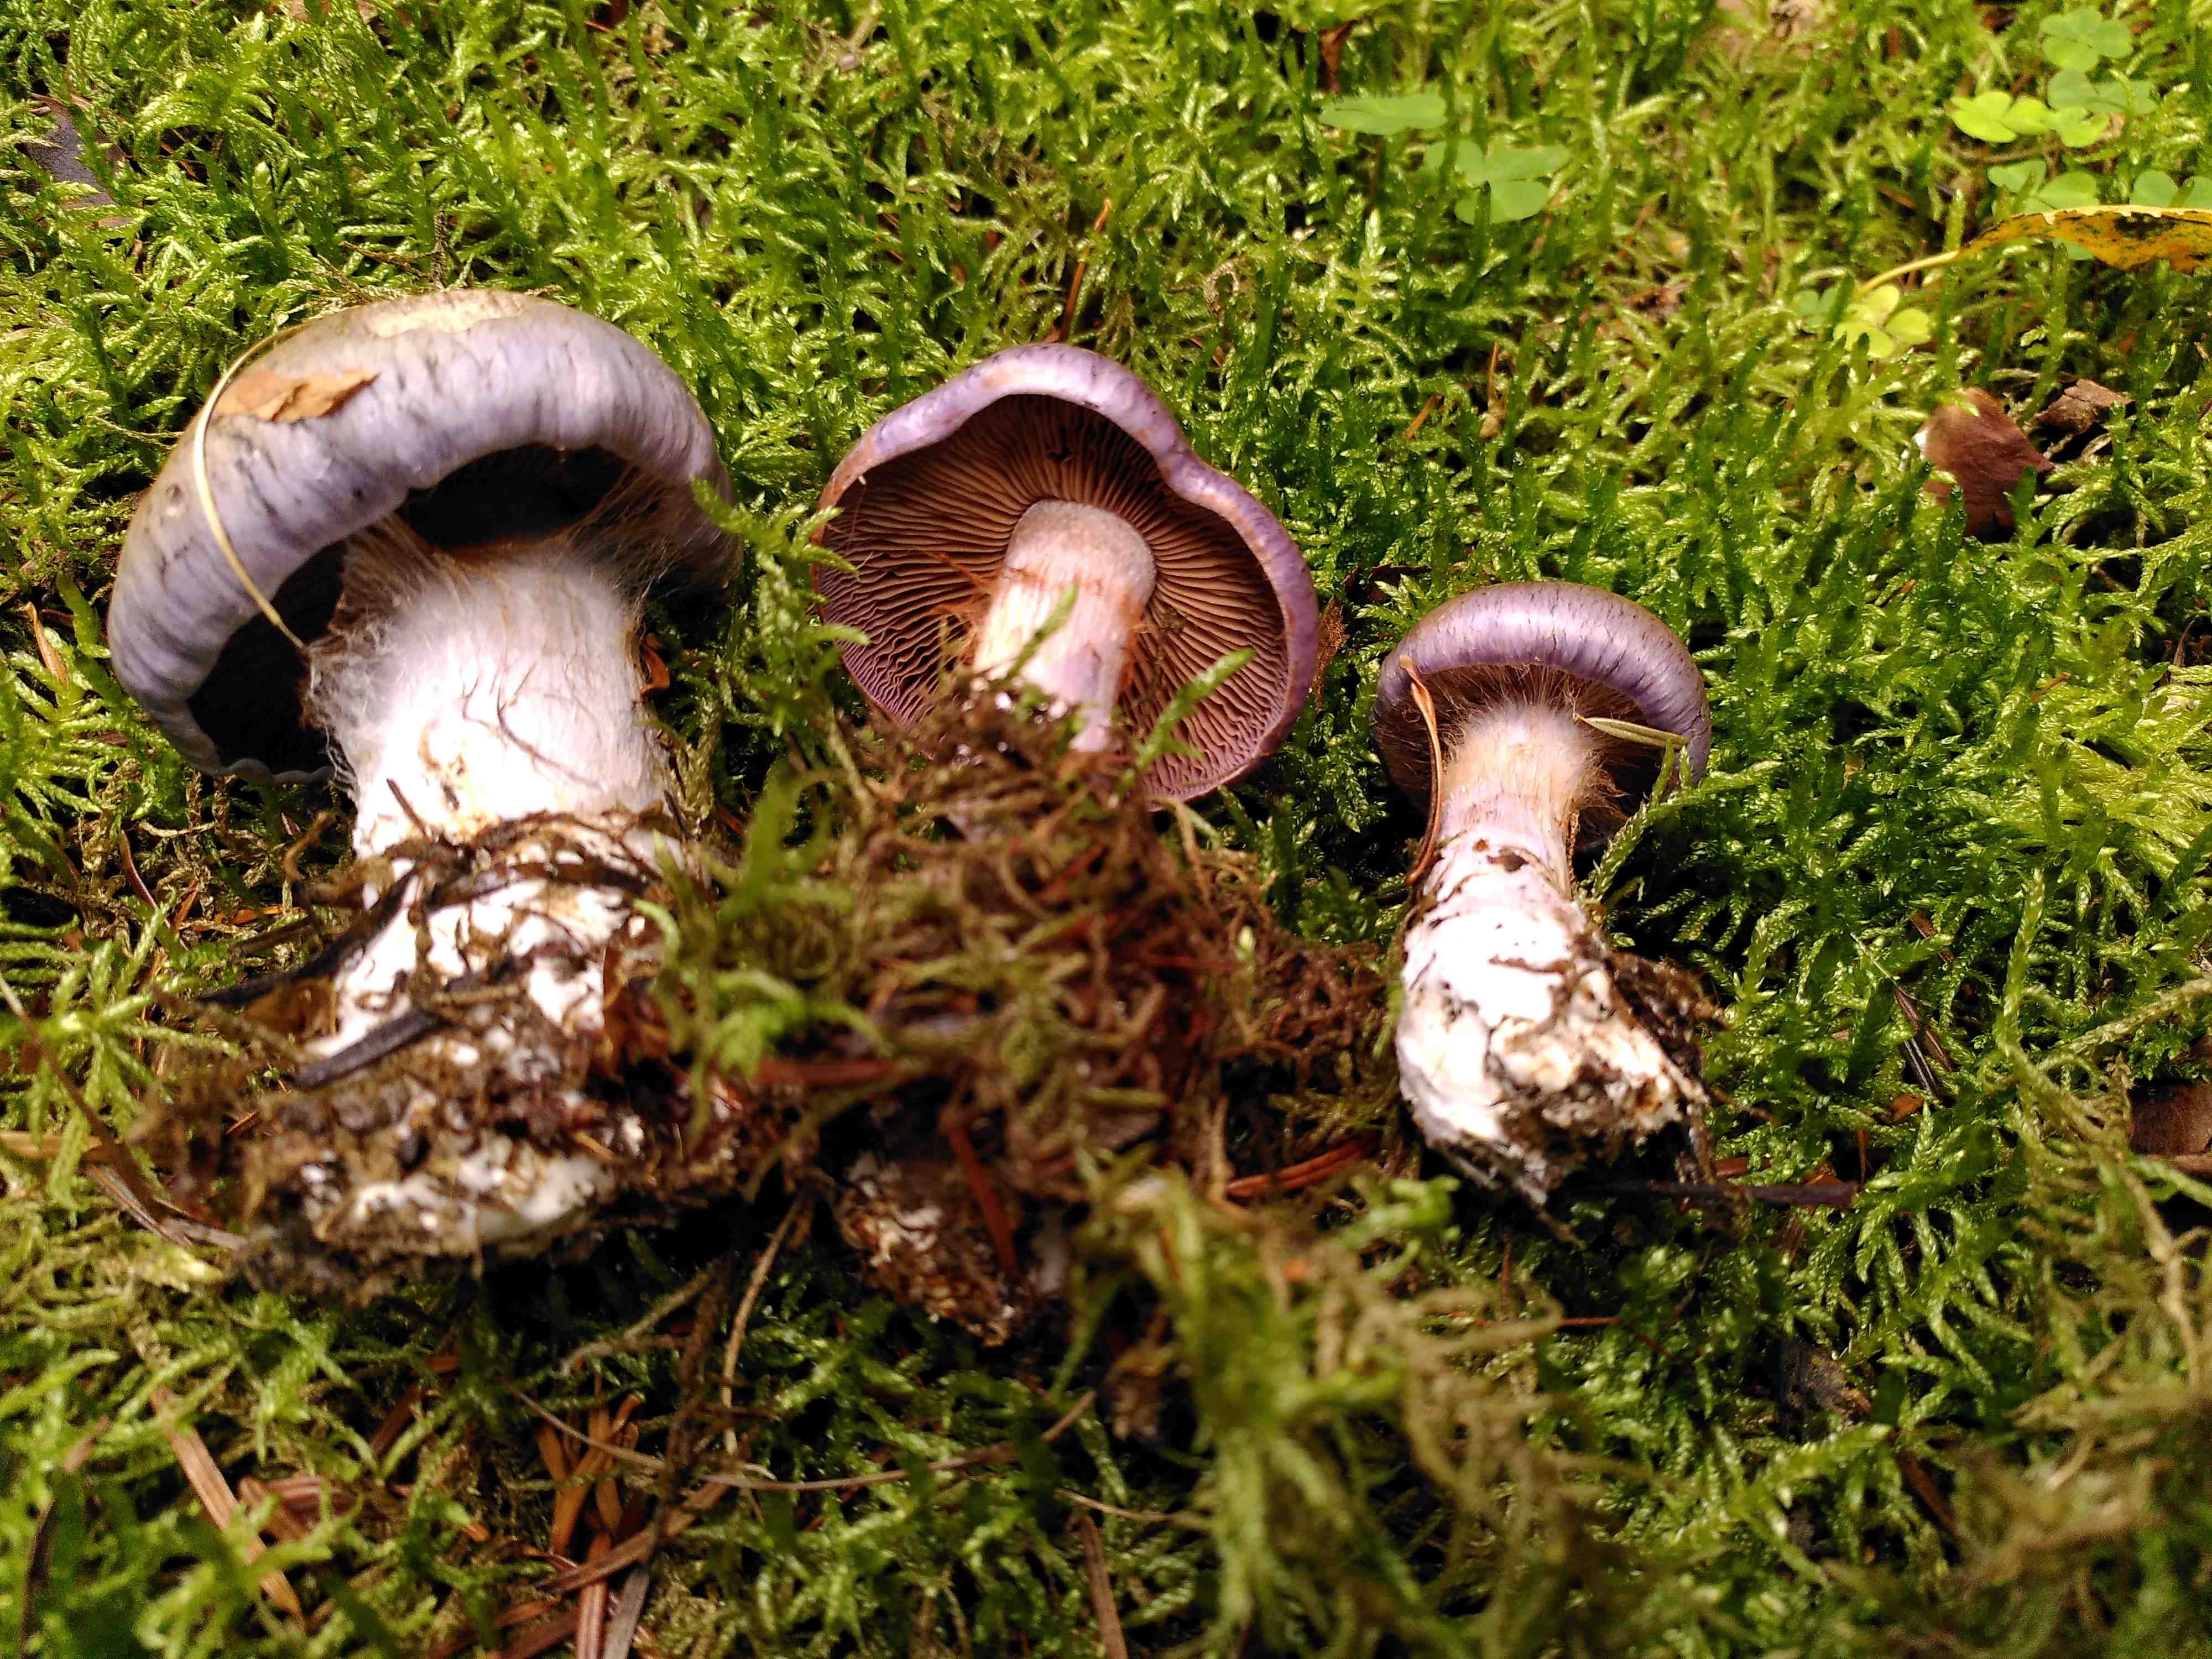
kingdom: Fungi
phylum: Basidiomycota
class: Agaricomycetes
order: Agaricales
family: Cortinariaceae
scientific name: Cortinariaceae
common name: slørhatfamilien
